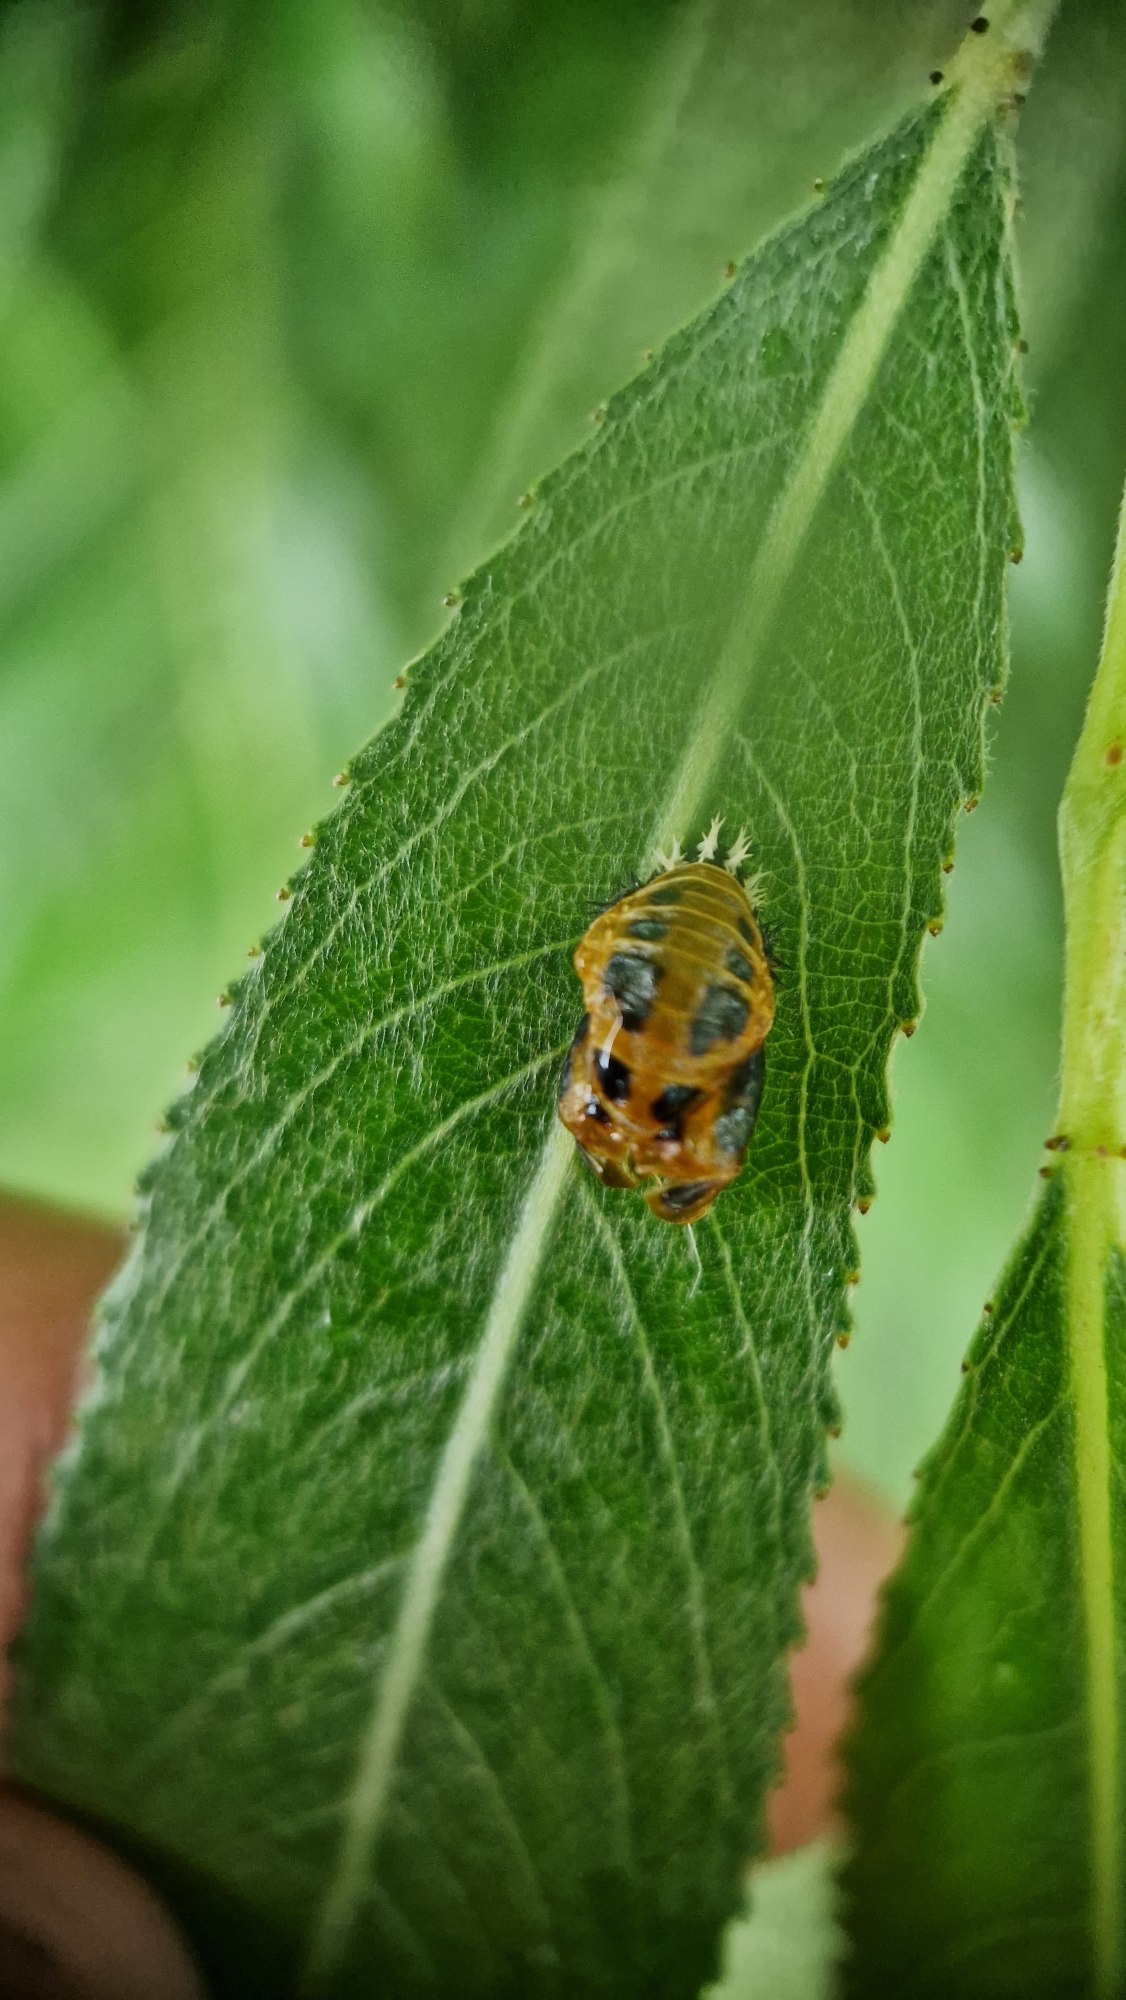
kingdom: Animalia
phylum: Arthropoda
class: Insecta
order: Coleoptera
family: Coccinellidae
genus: Harmonia
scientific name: Harmonia axyridis
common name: Harlekinmariehøne
